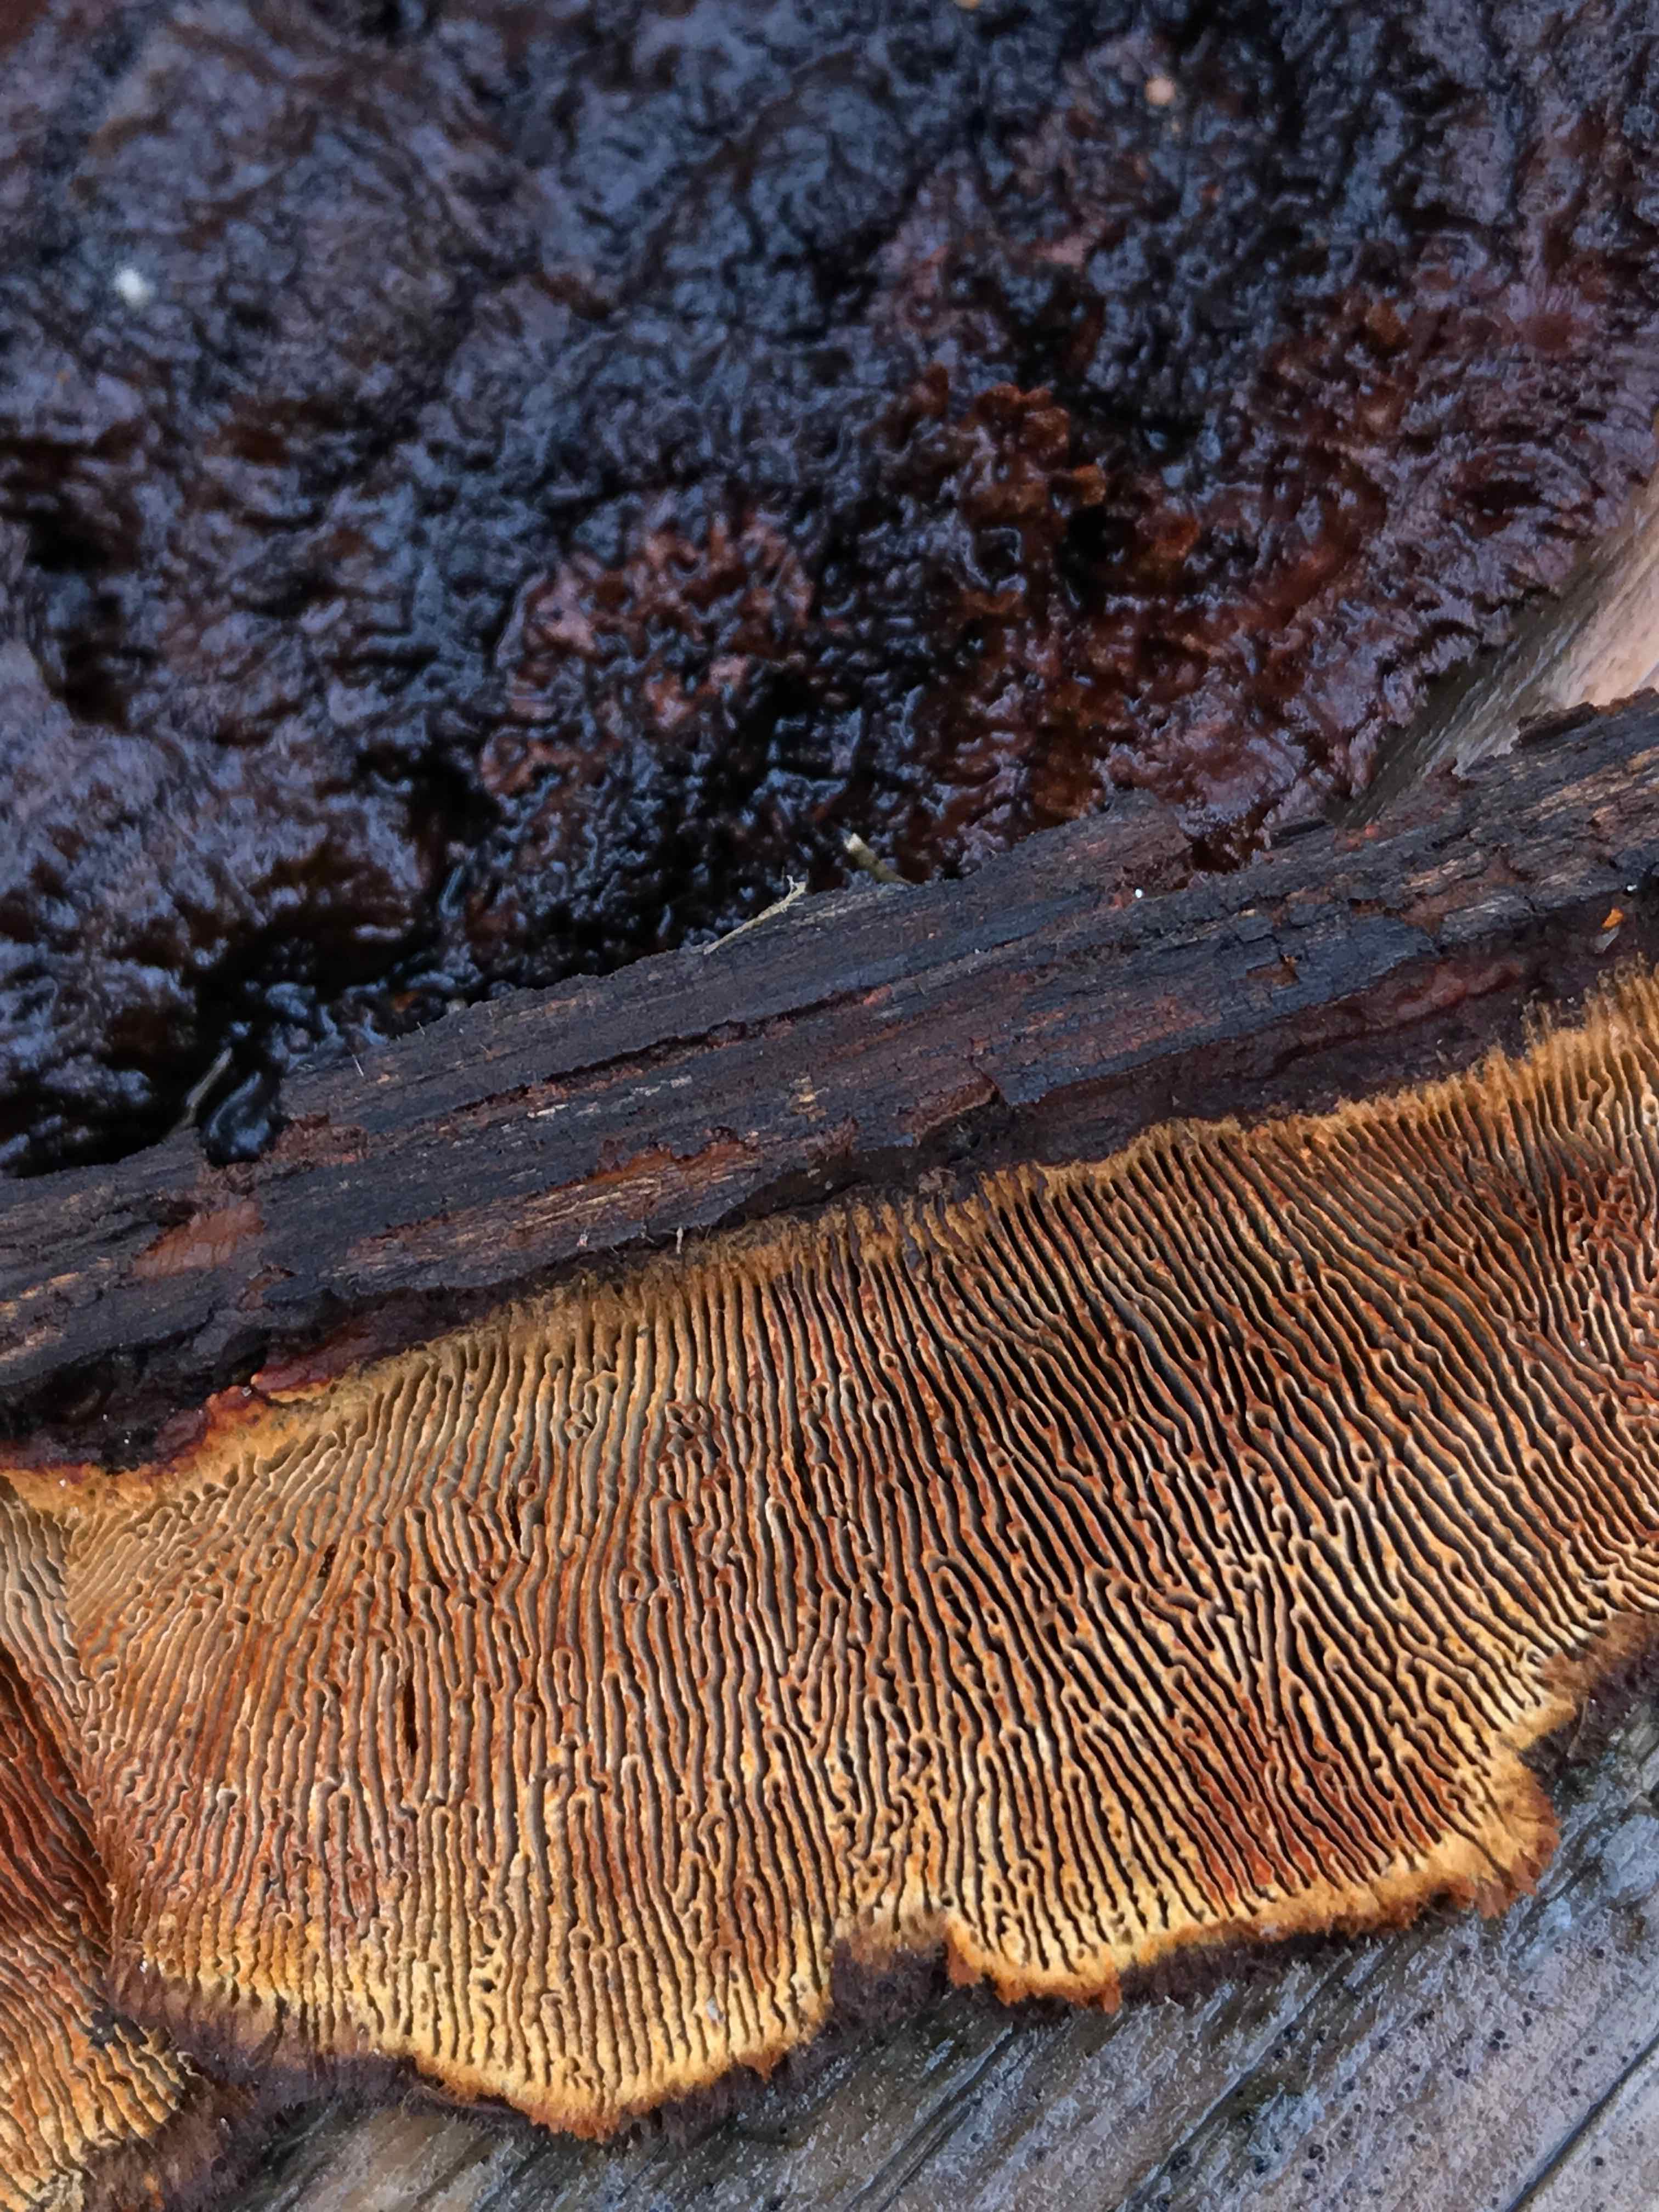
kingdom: Fungi
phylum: Basidiomycota
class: Agaricomycetes
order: Gloeophyllales
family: Gloeophyllaceae
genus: Gloeophyllum
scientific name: Gloeophyllum sepiarium
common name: fyrre-korkhat
